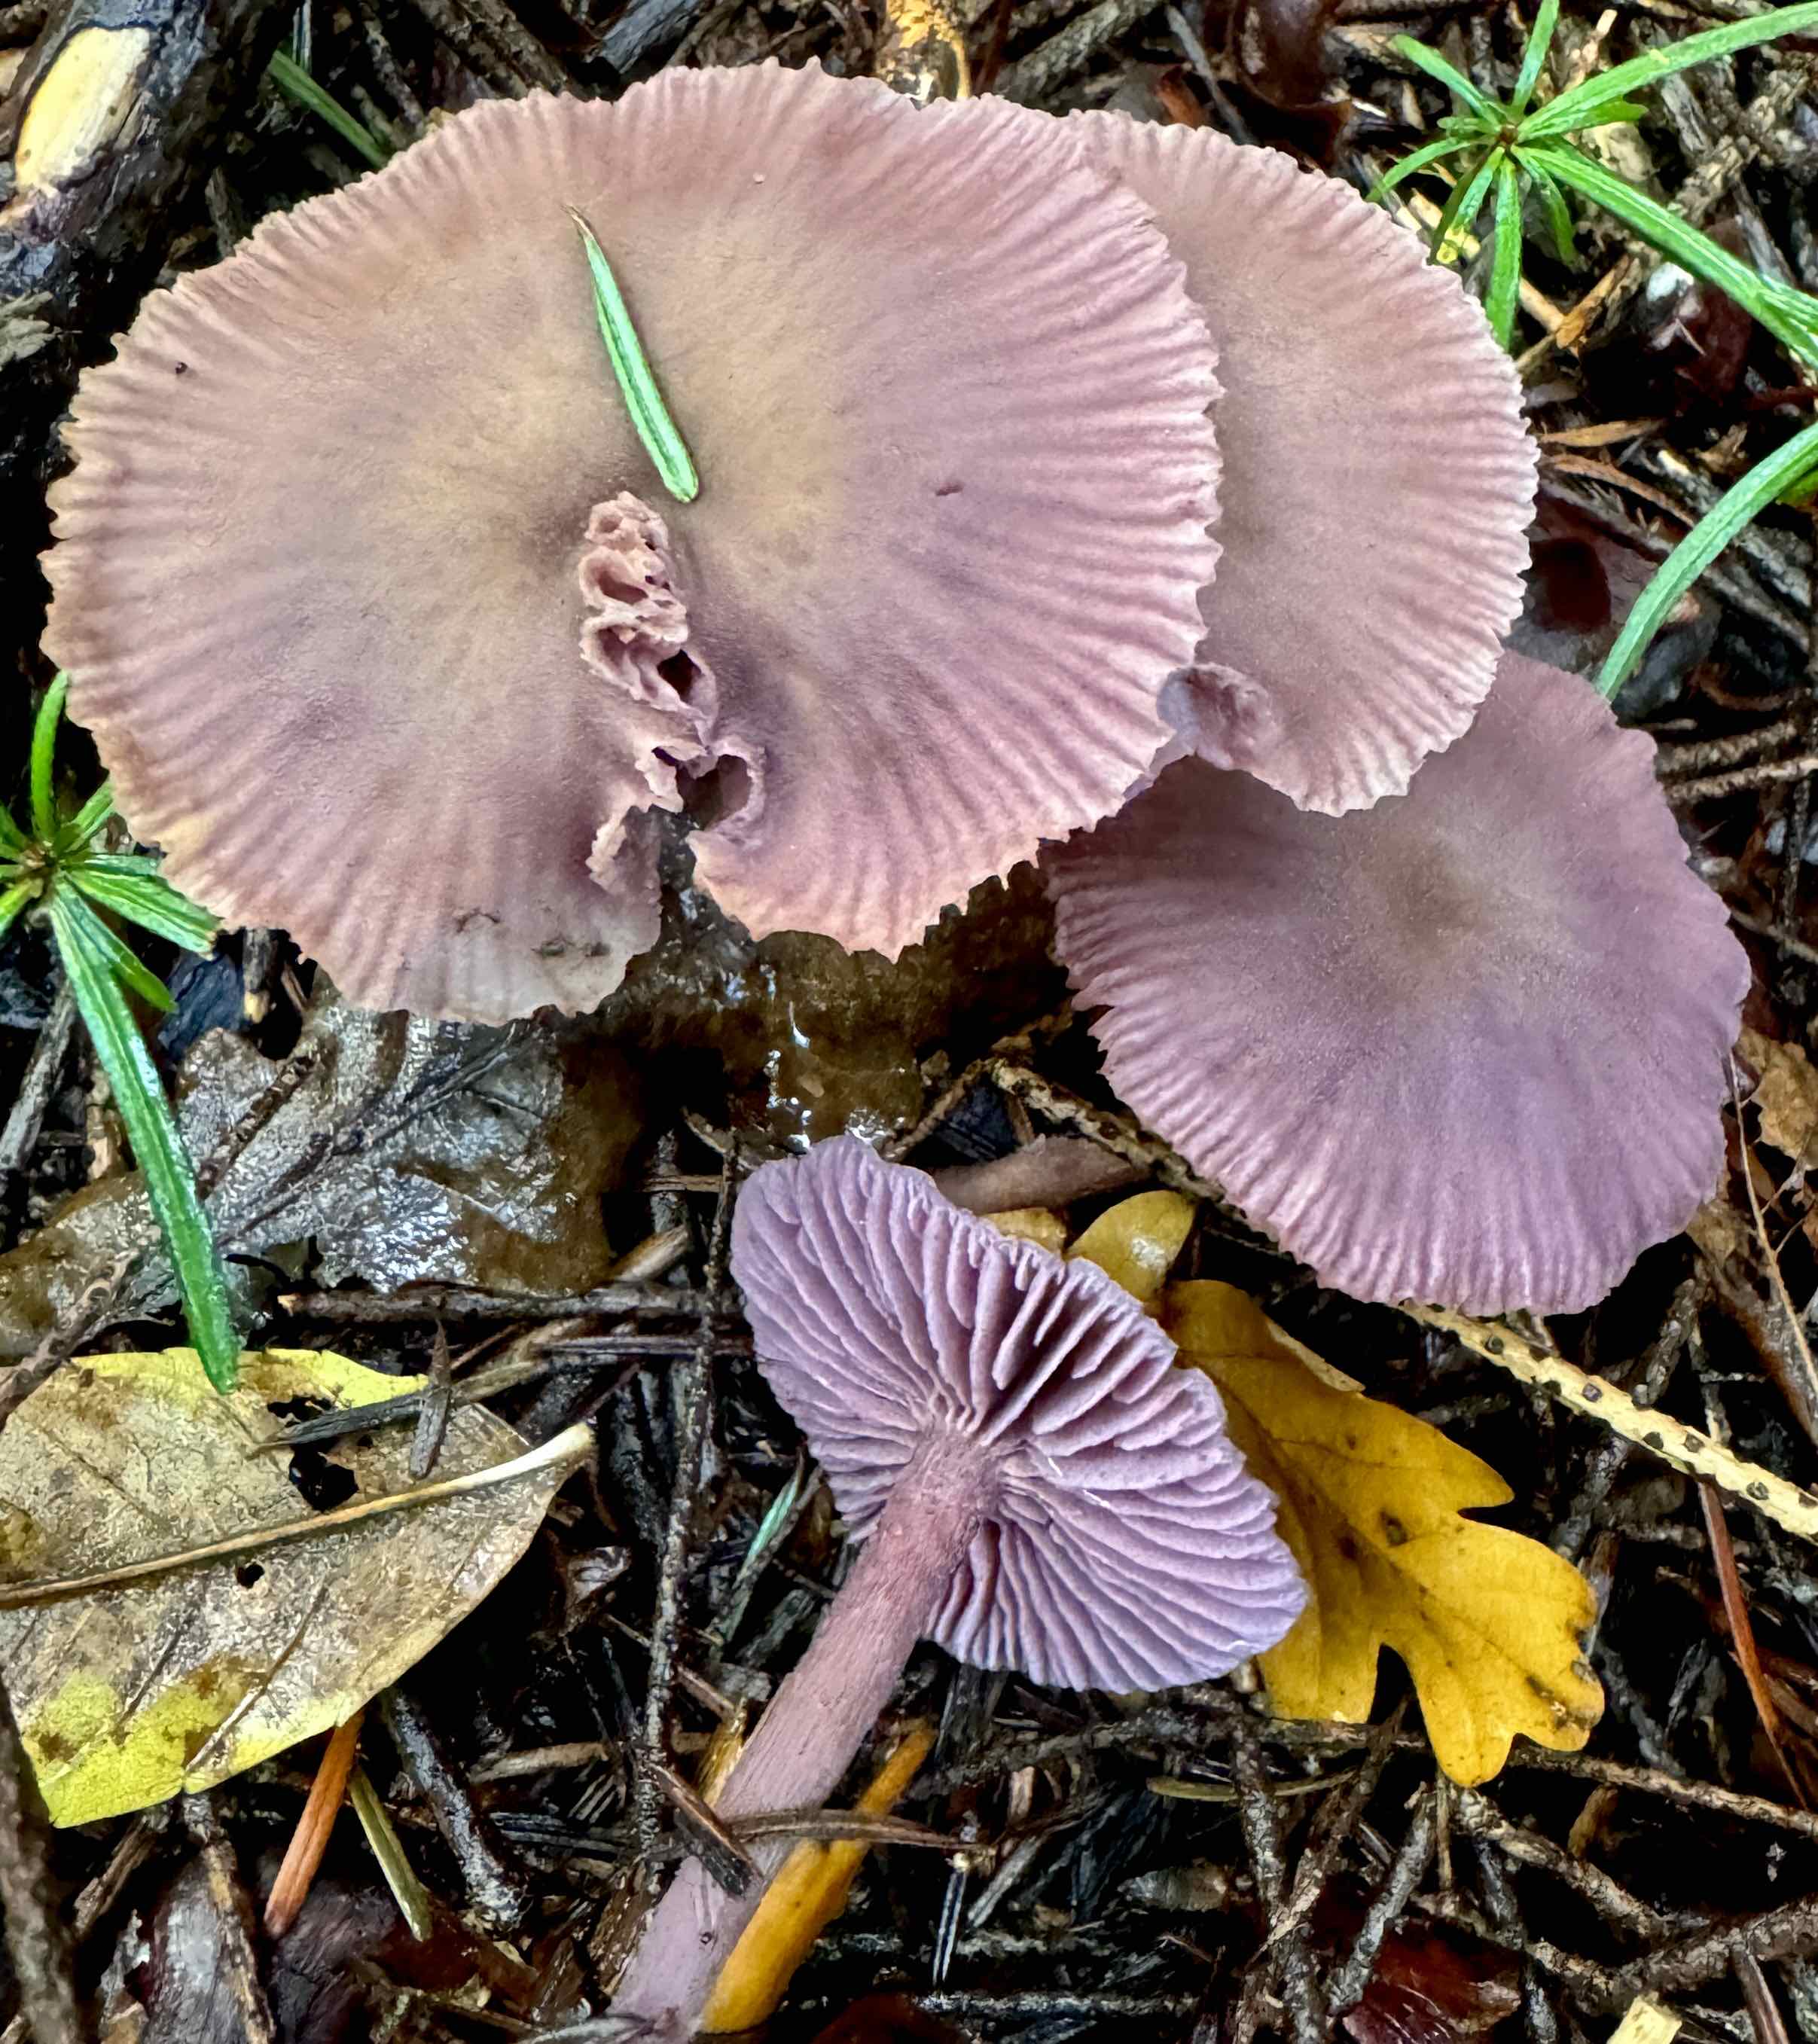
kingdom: Fungi
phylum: Basidiomycota
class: Agaricomycetes
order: Agaricales
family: Hydnangiaceae
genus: Laccaria
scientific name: Laccaria amethystina
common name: violet ametysthat
